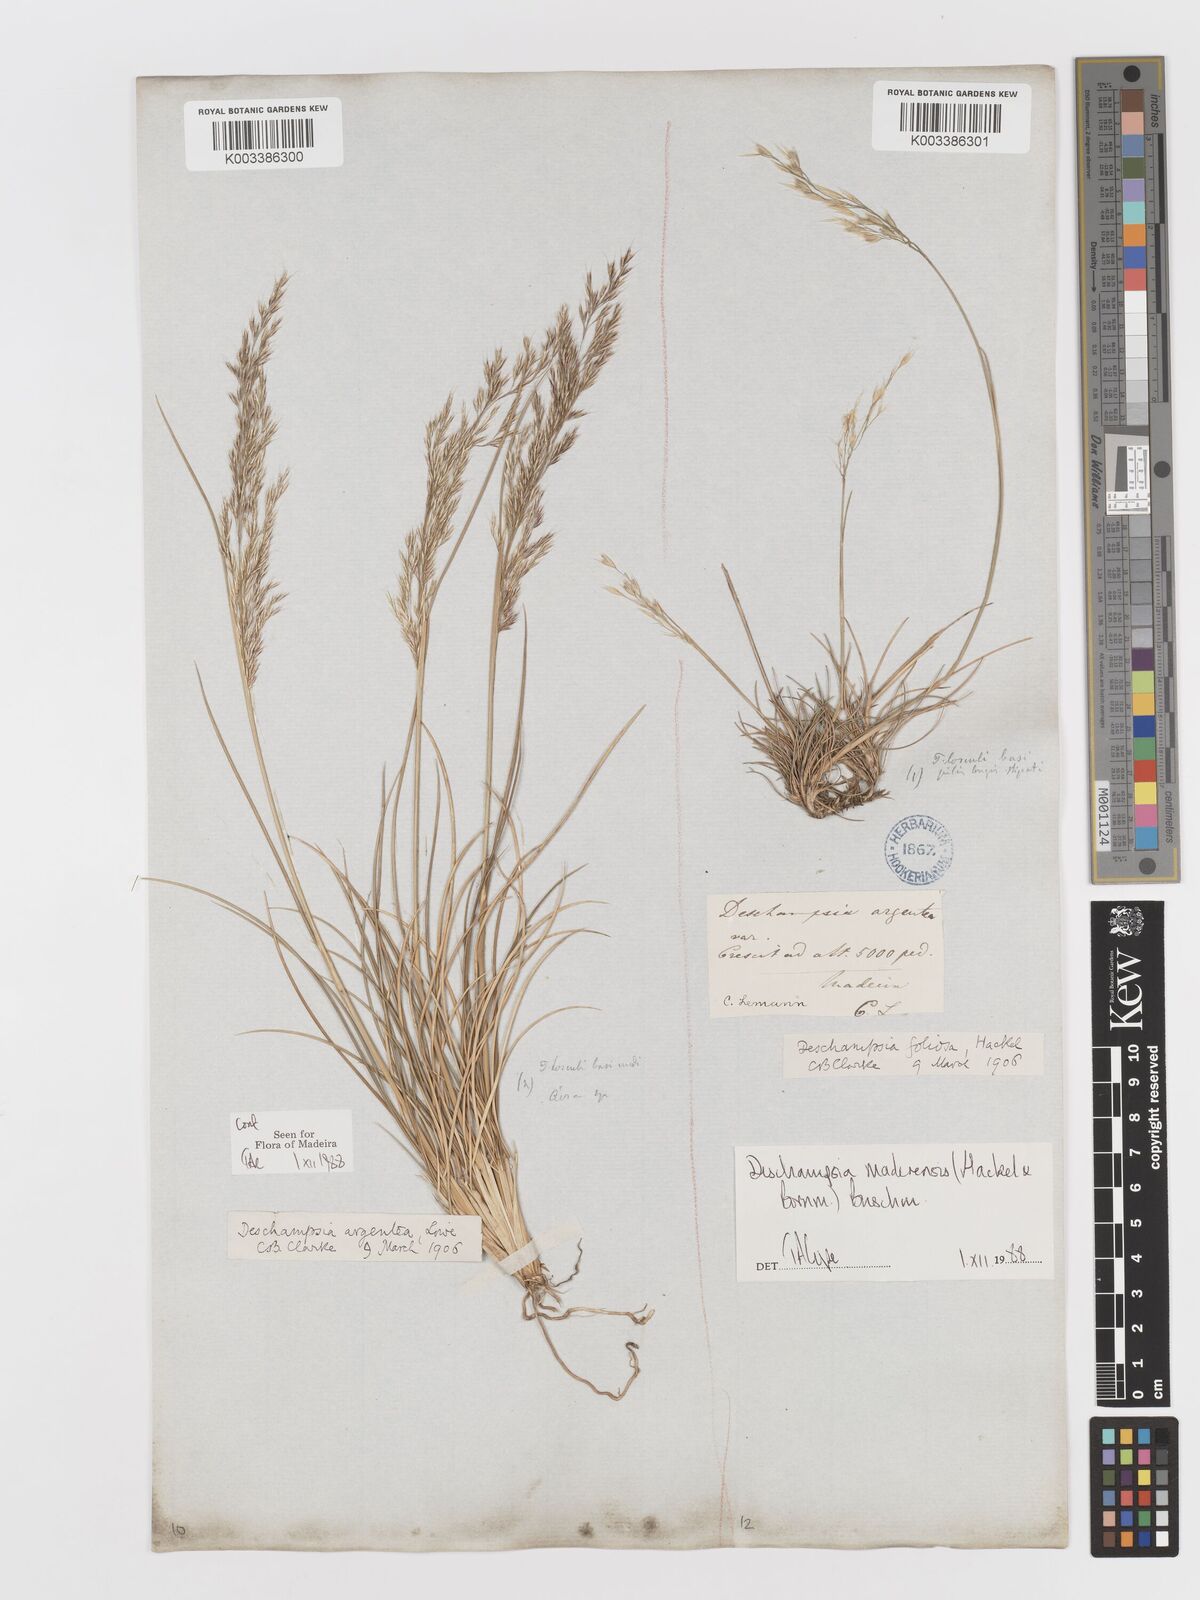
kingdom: Plantae
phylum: Tracheophyta
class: Liliopsida
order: Poales
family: Poaceae
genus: Avenella
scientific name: Avenella flexuosa
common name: Wavy hairgrass
